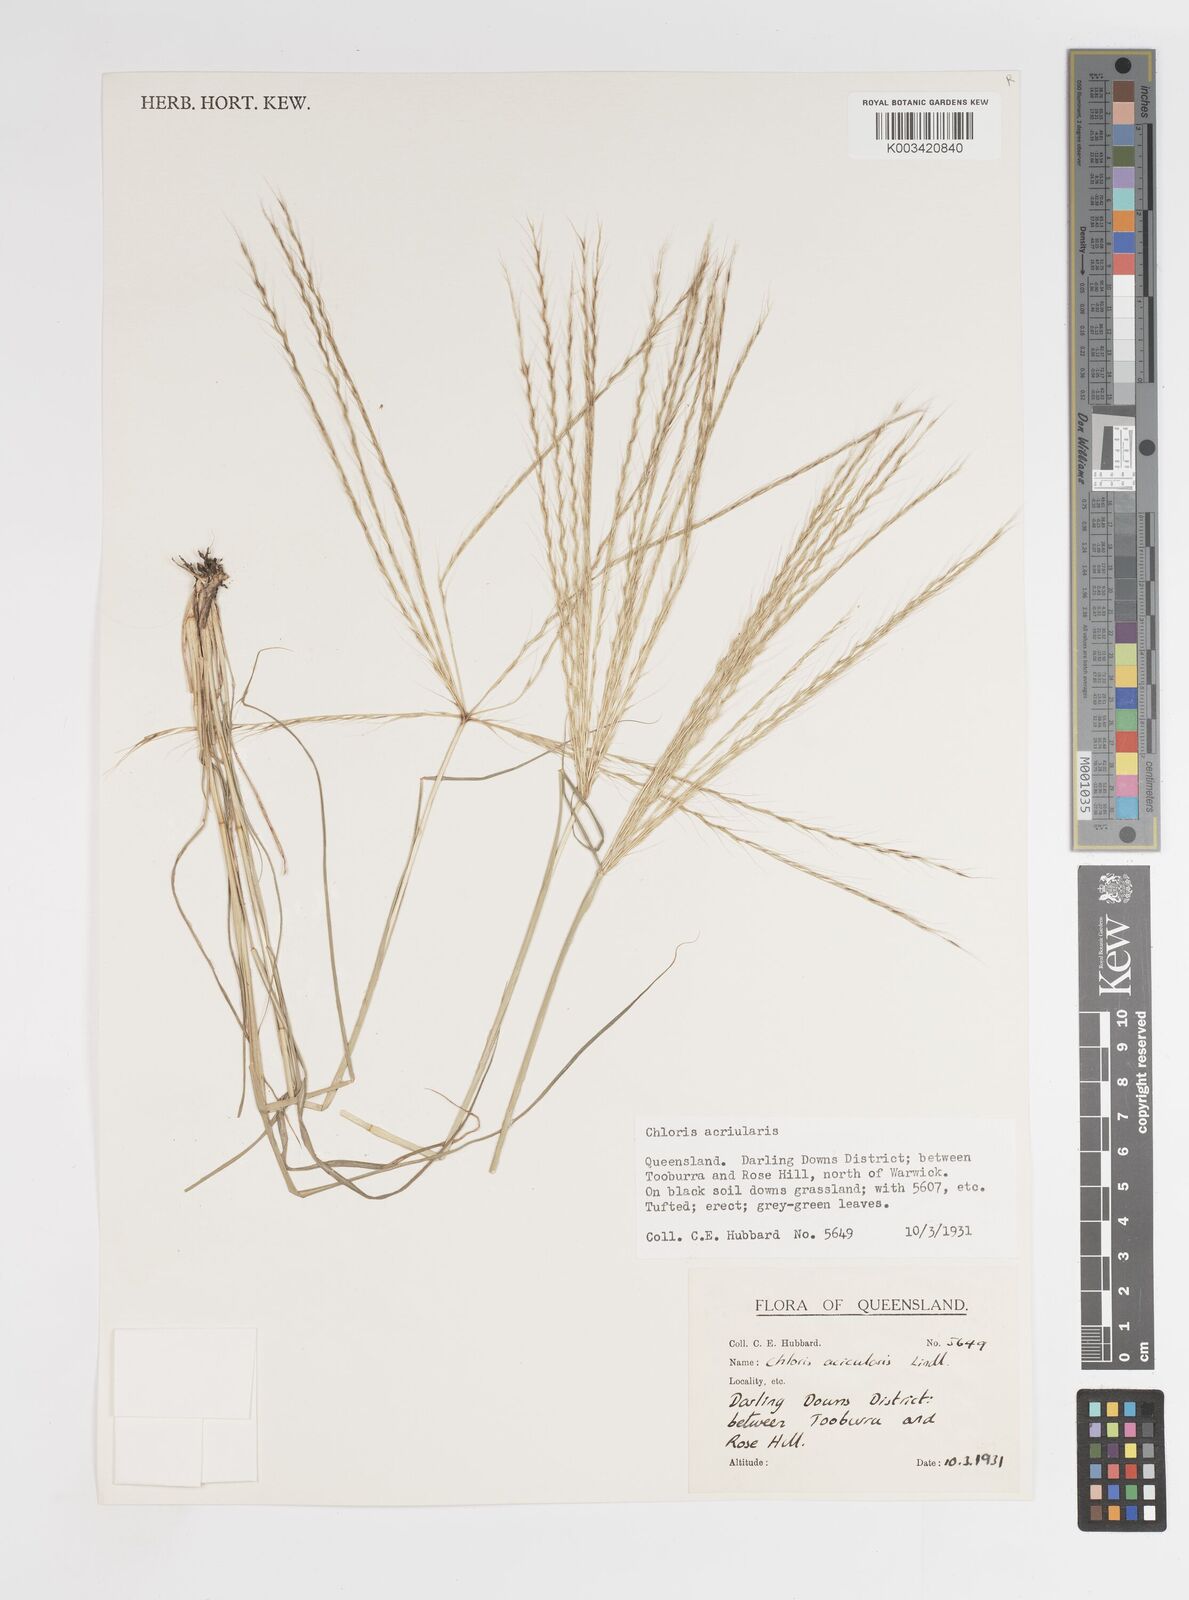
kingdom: Plantae
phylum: Tracheophyta
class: Liliopsida
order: Poales
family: Poaceae
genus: Enteropogon
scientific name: Enteropogon acicularis
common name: Curly windmill grass
